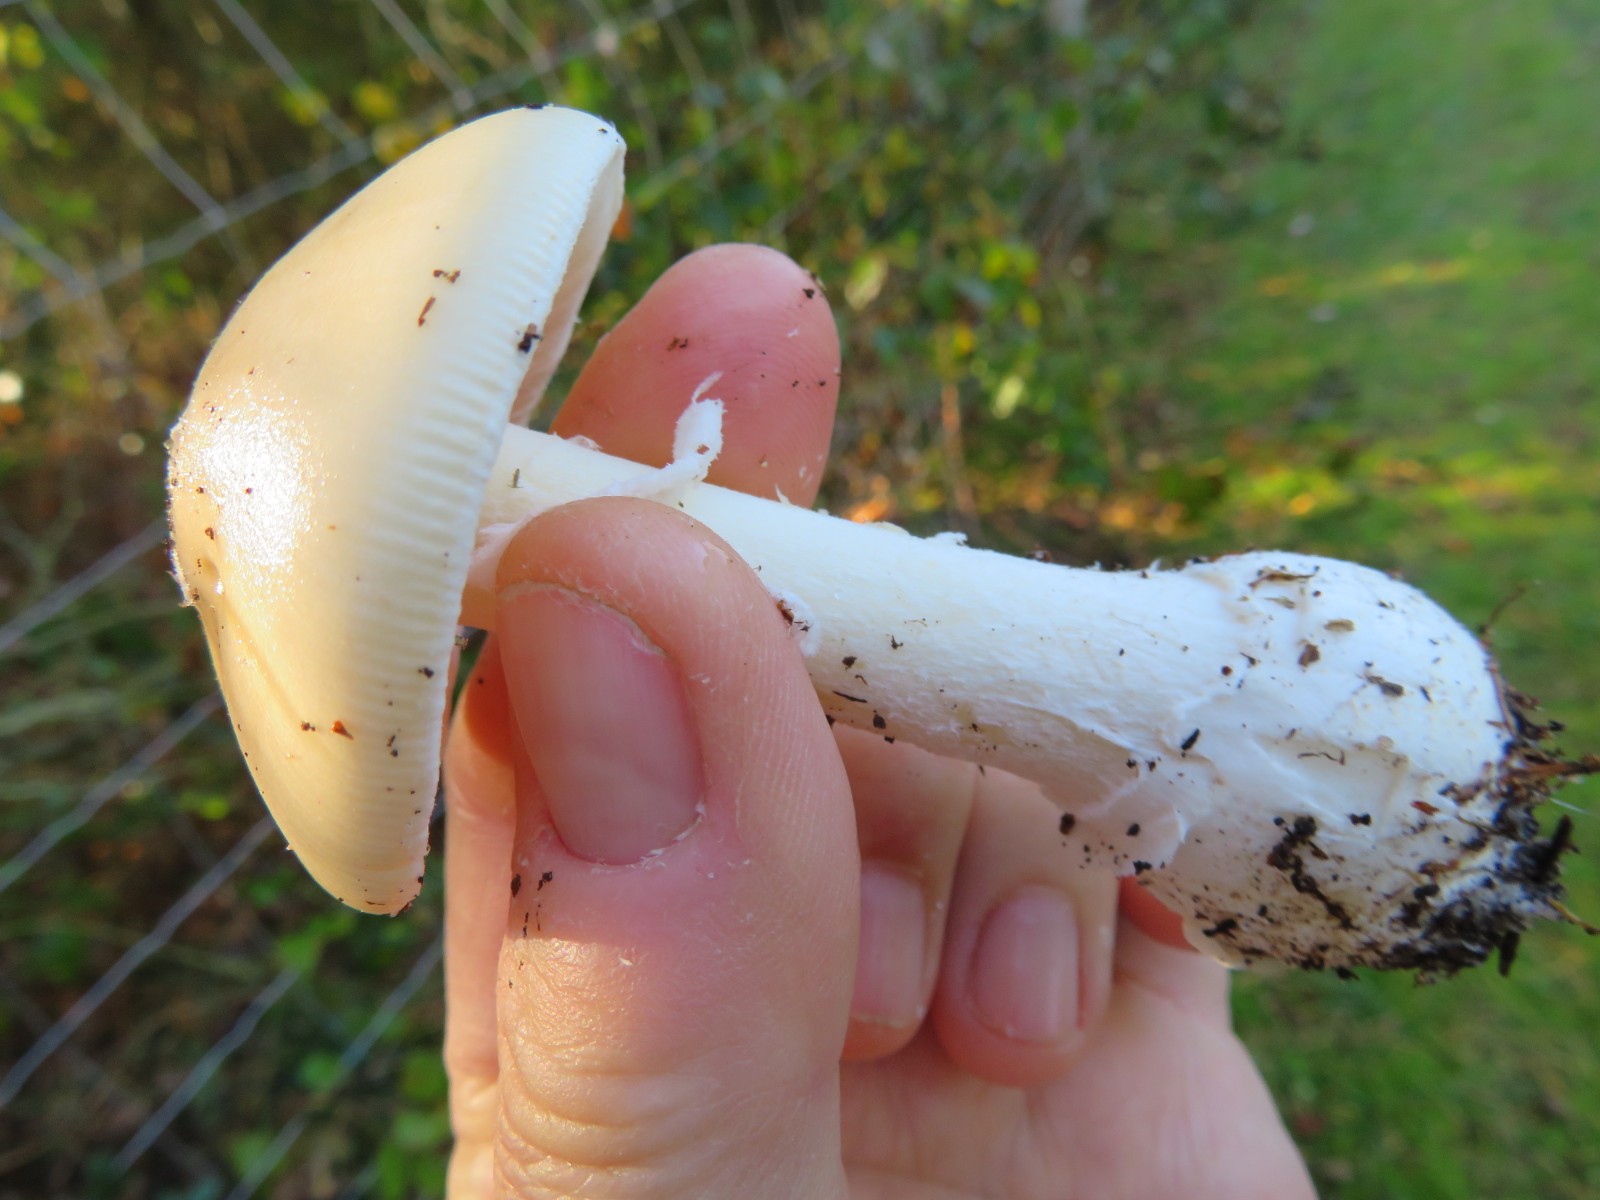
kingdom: Fungi
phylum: Basidiomycota
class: Agaricomycetes
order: Agaricales
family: Amanitaceae
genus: Amanita
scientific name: Amanita gemmata
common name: okkergul fluesvamp
